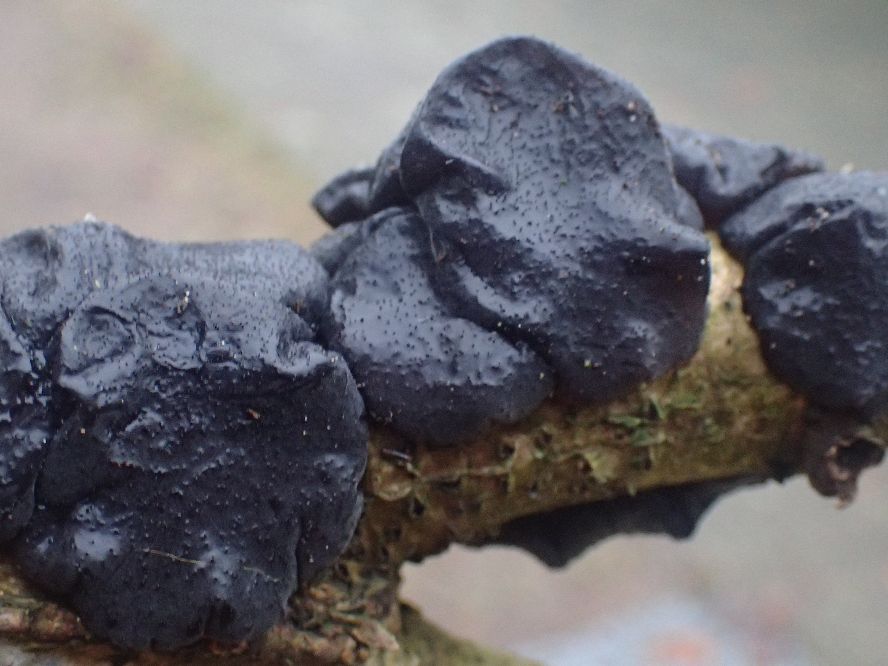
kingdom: Fungi
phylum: Basidiomycota
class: Agaricomycetes
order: Auriculariales
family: Auriculariaceae
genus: Exidia
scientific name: Exidia glandulosa
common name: ege-bævretop
